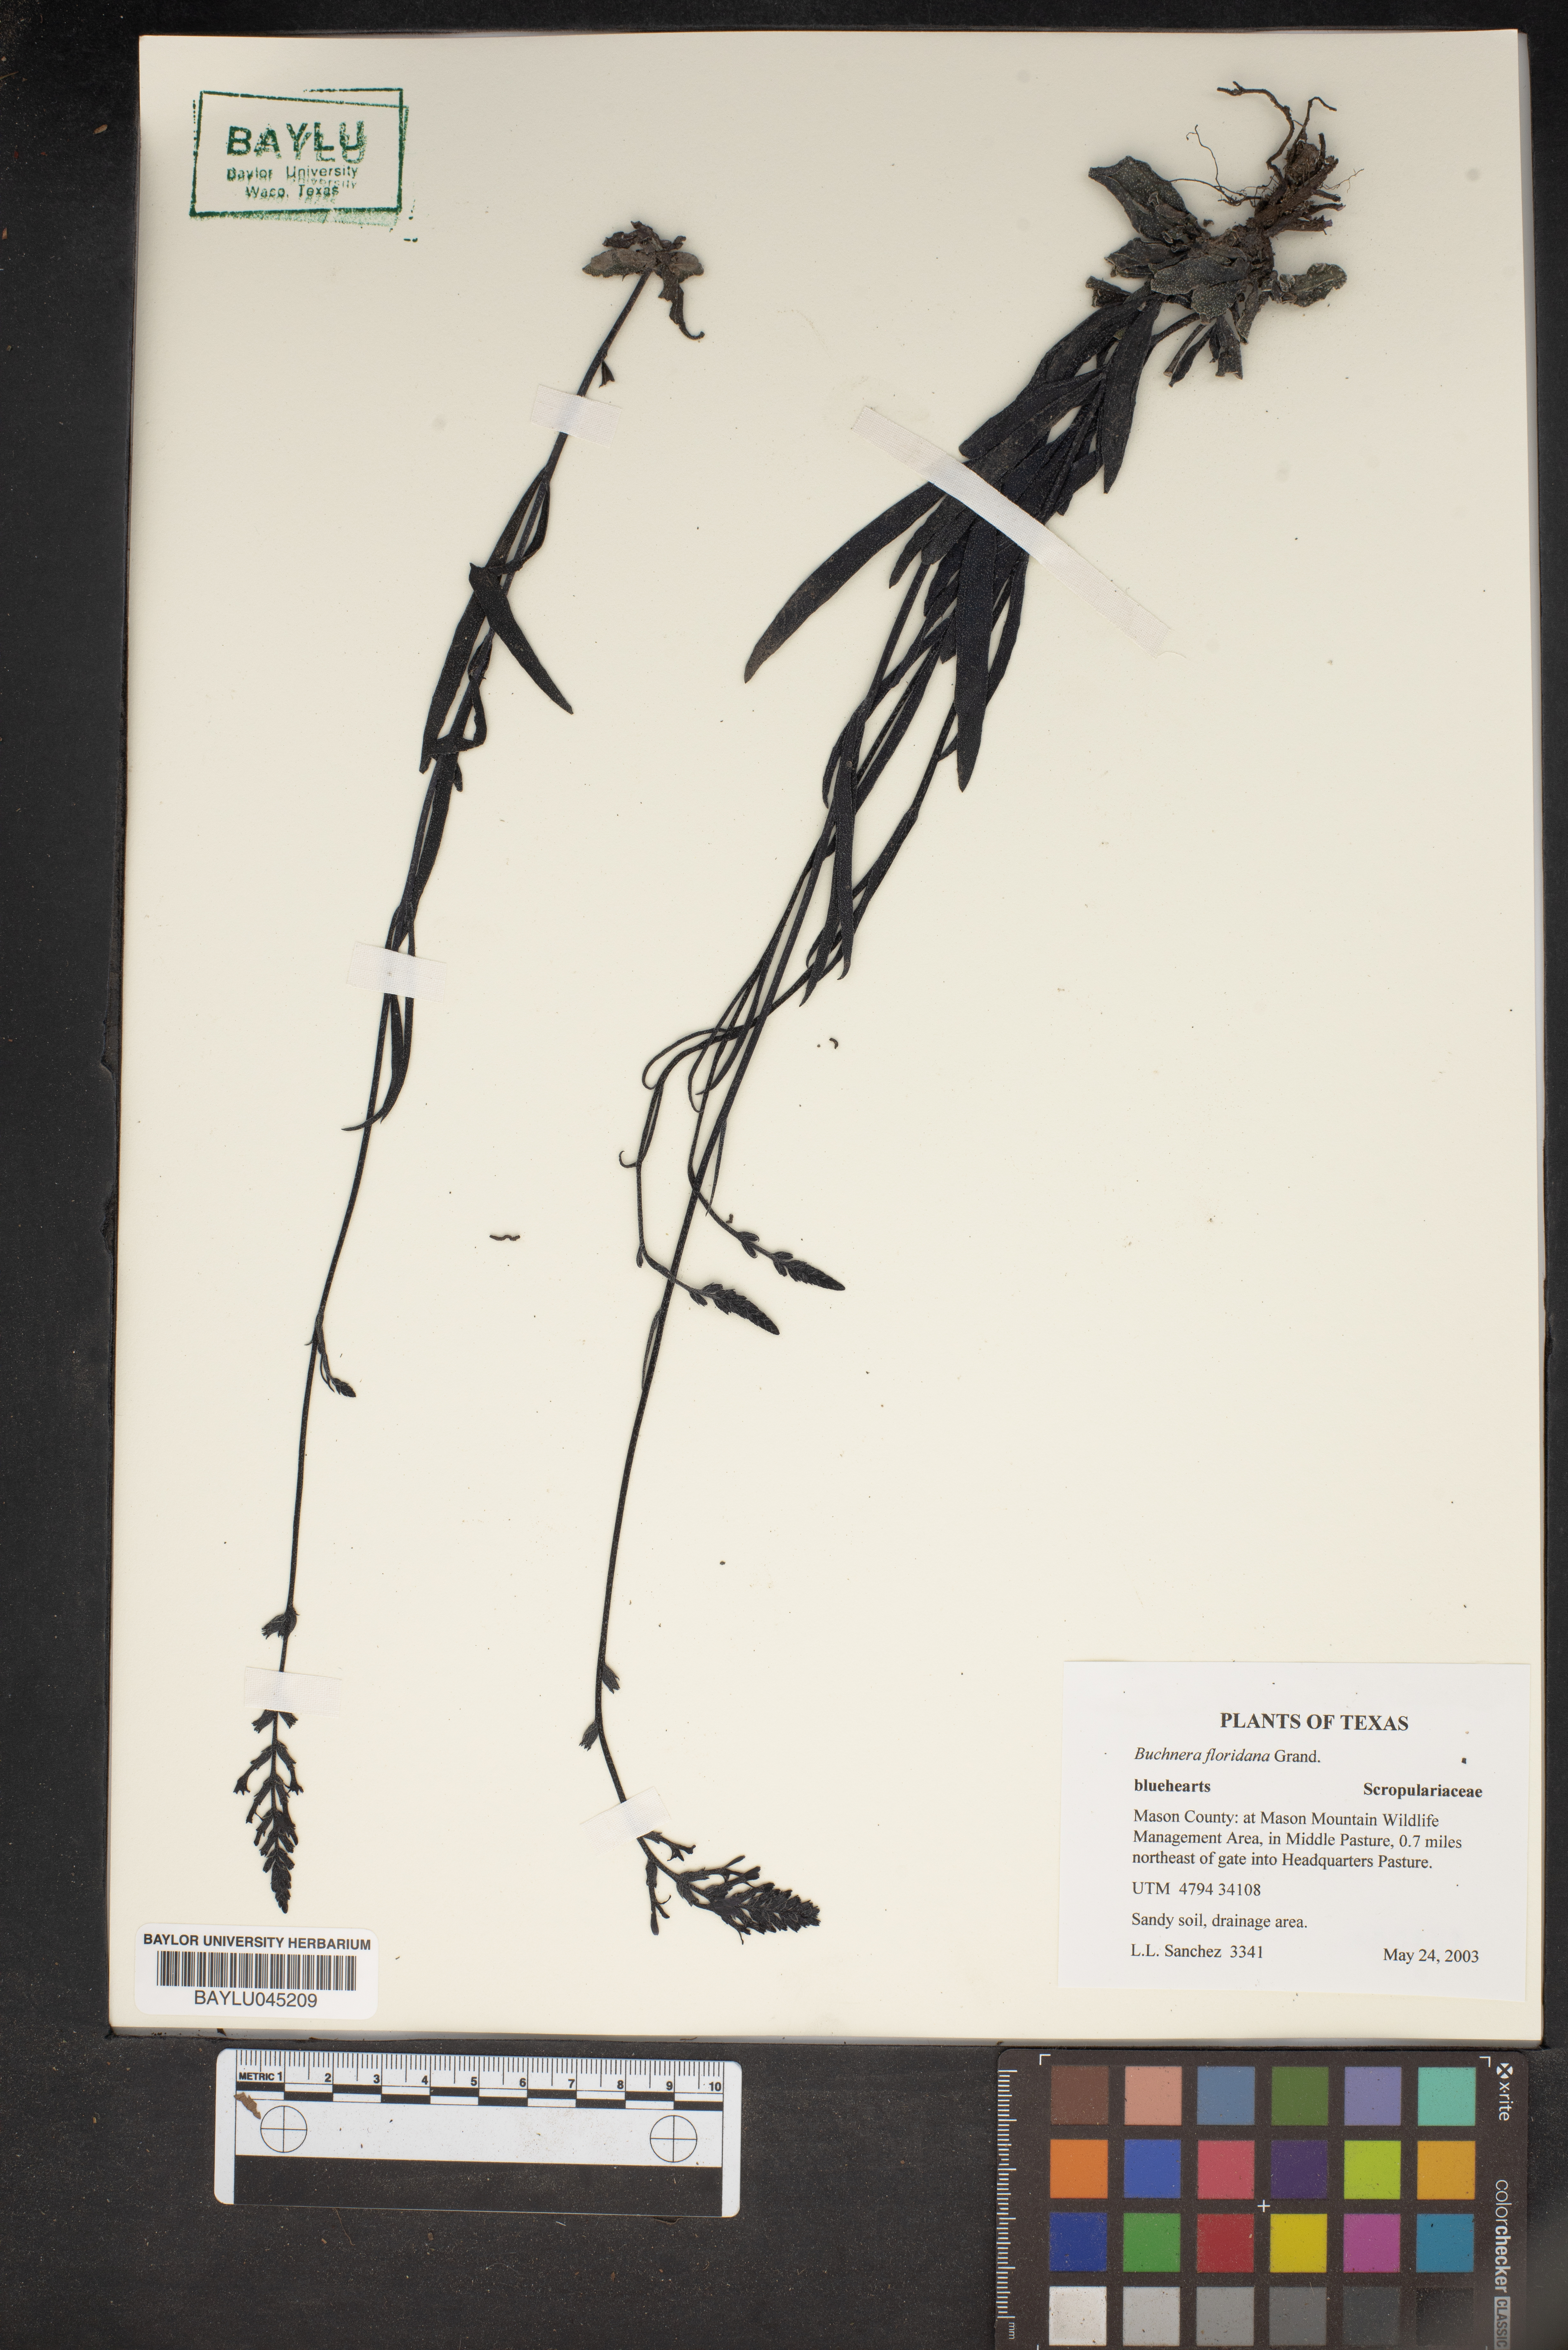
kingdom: Plantae
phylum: Tracheophyta
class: Magnoliopsida
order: Lamiales
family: Orobanchaceae
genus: Buchnera
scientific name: Buchnera floridana
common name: Florida bluehearts
